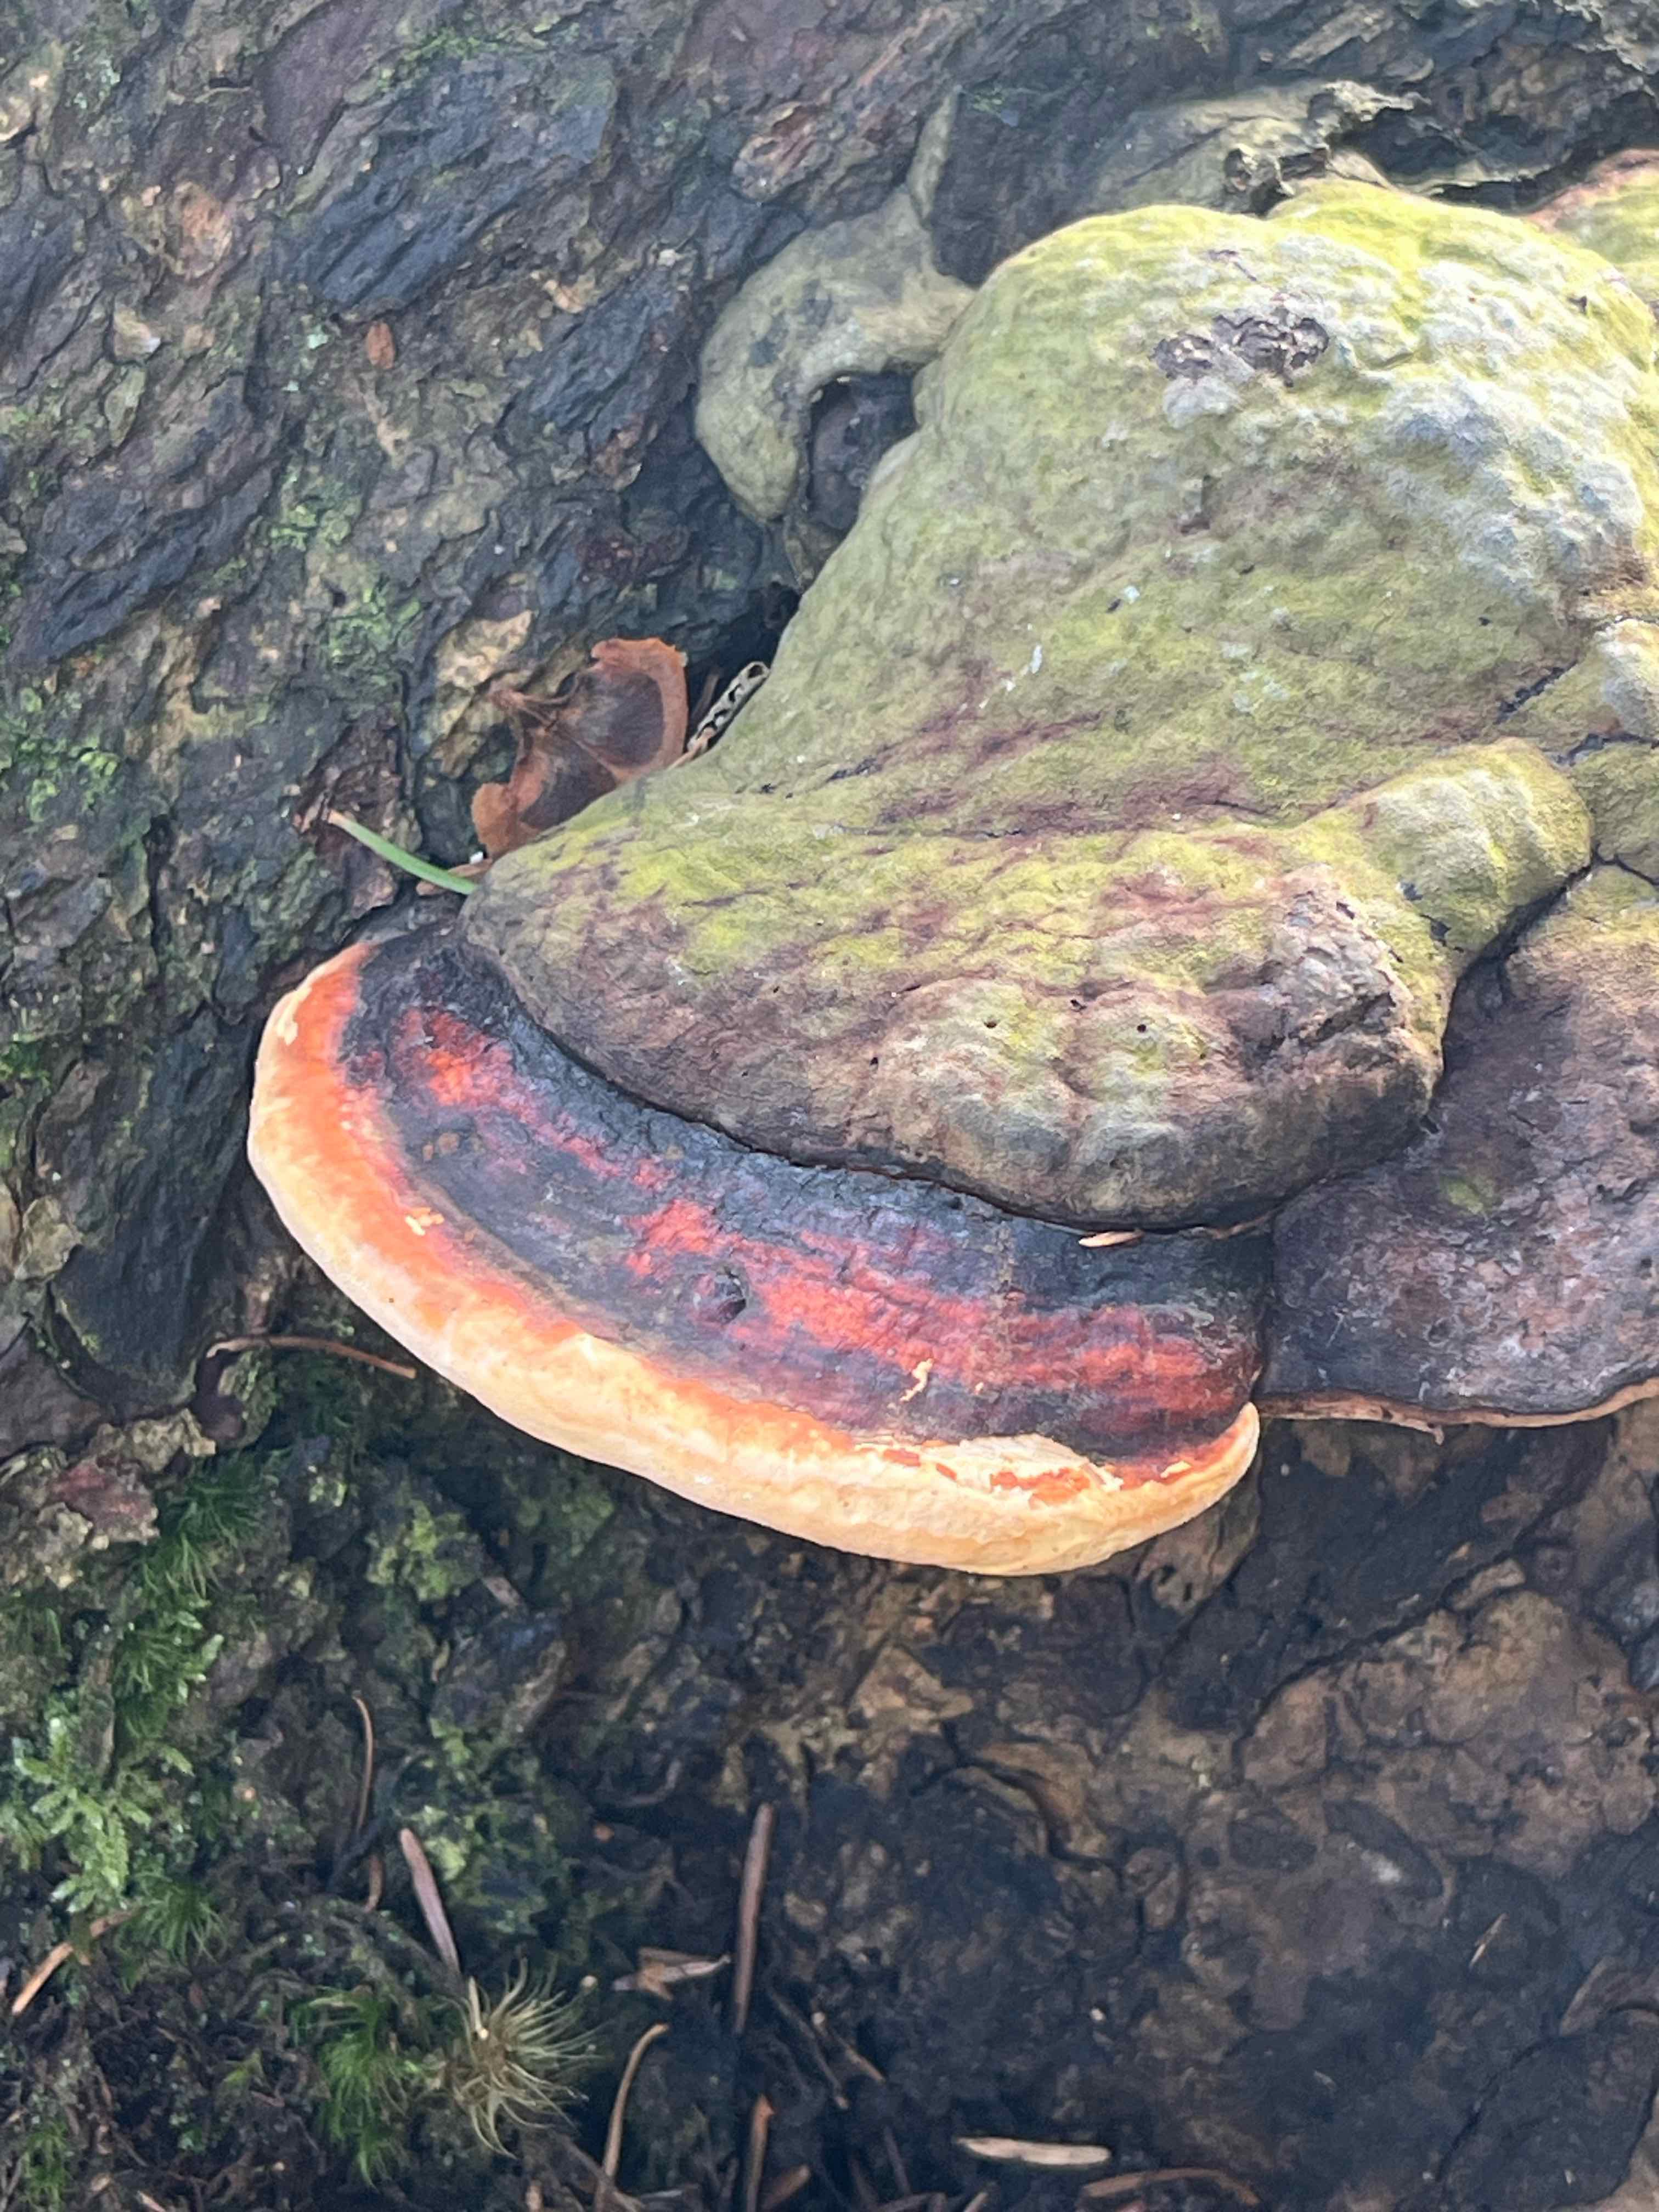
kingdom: Fungi
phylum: Basidiomycota
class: Agaricomycetes
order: Polyporales
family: Fomitopsidaceae
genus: Fomitopsis
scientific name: Fomitopsis pinicola
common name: randbæltet hovporesvamp
